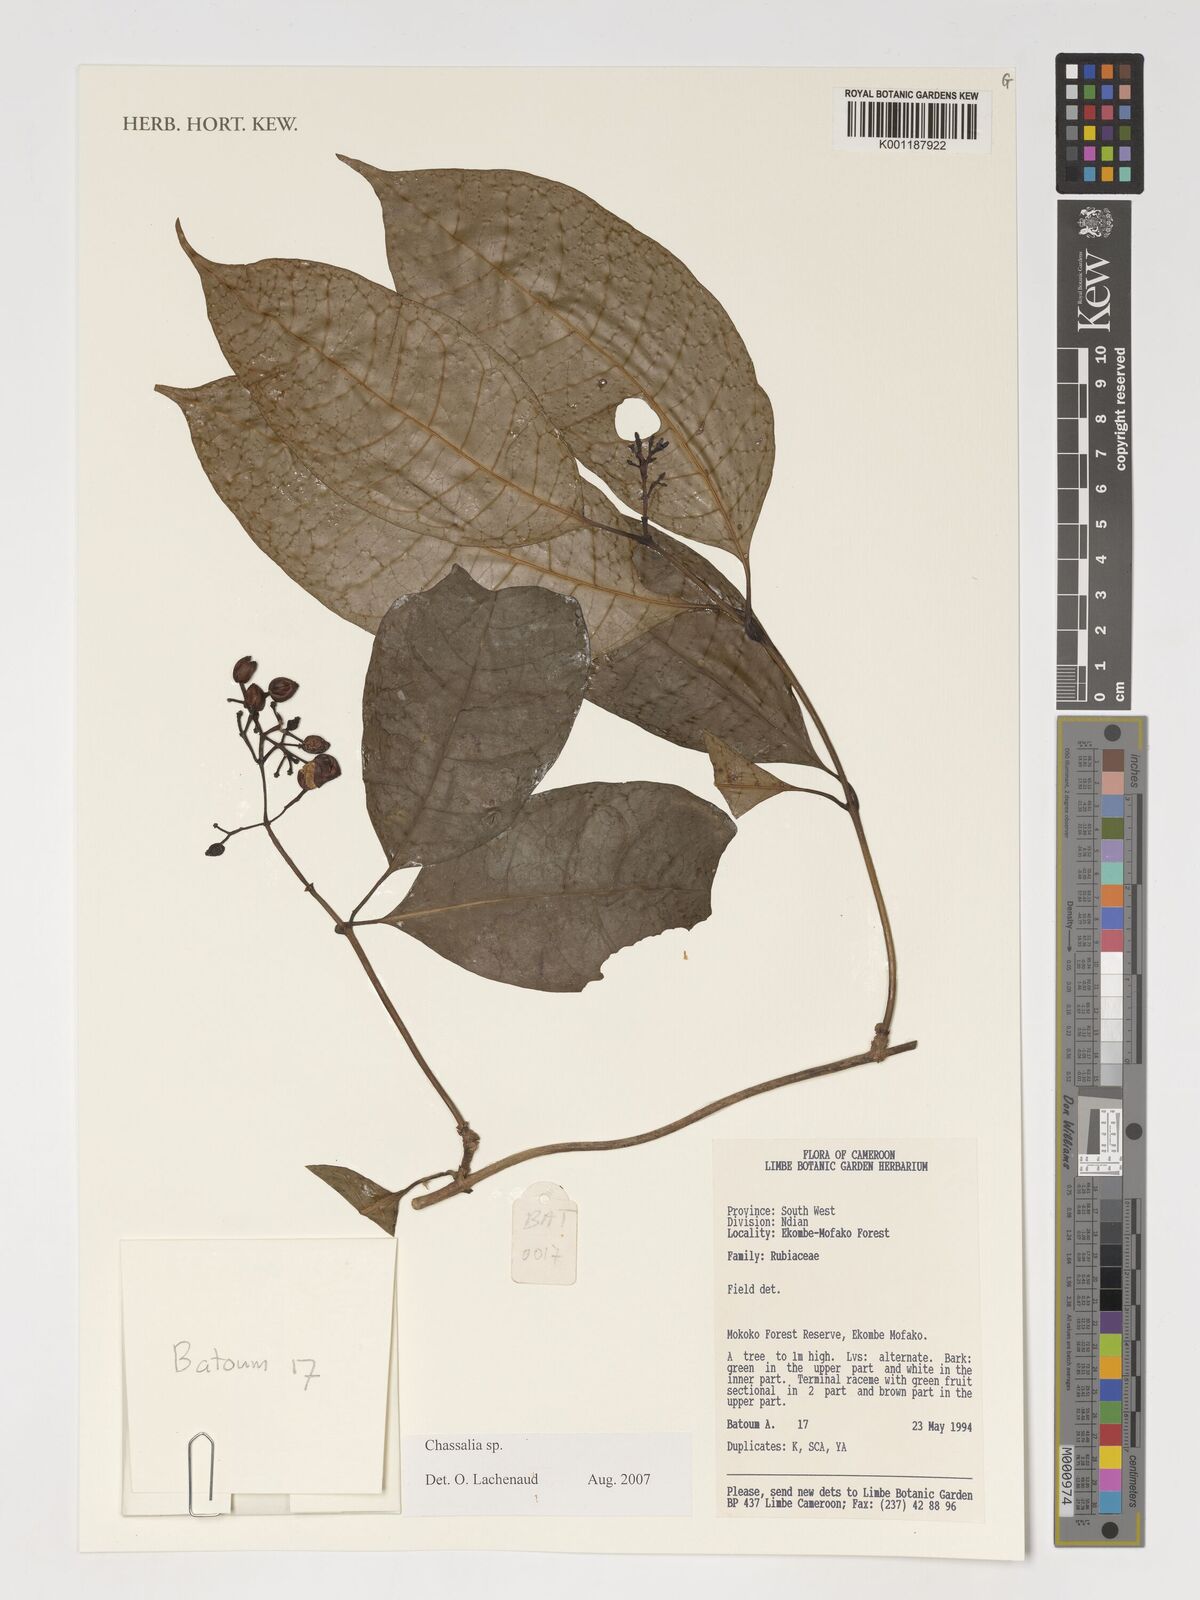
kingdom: Plantae
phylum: Tracheophyta
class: Magnoliopsida
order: Gentianales
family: Rubiaceae
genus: Chassalia
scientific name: Chassalia
